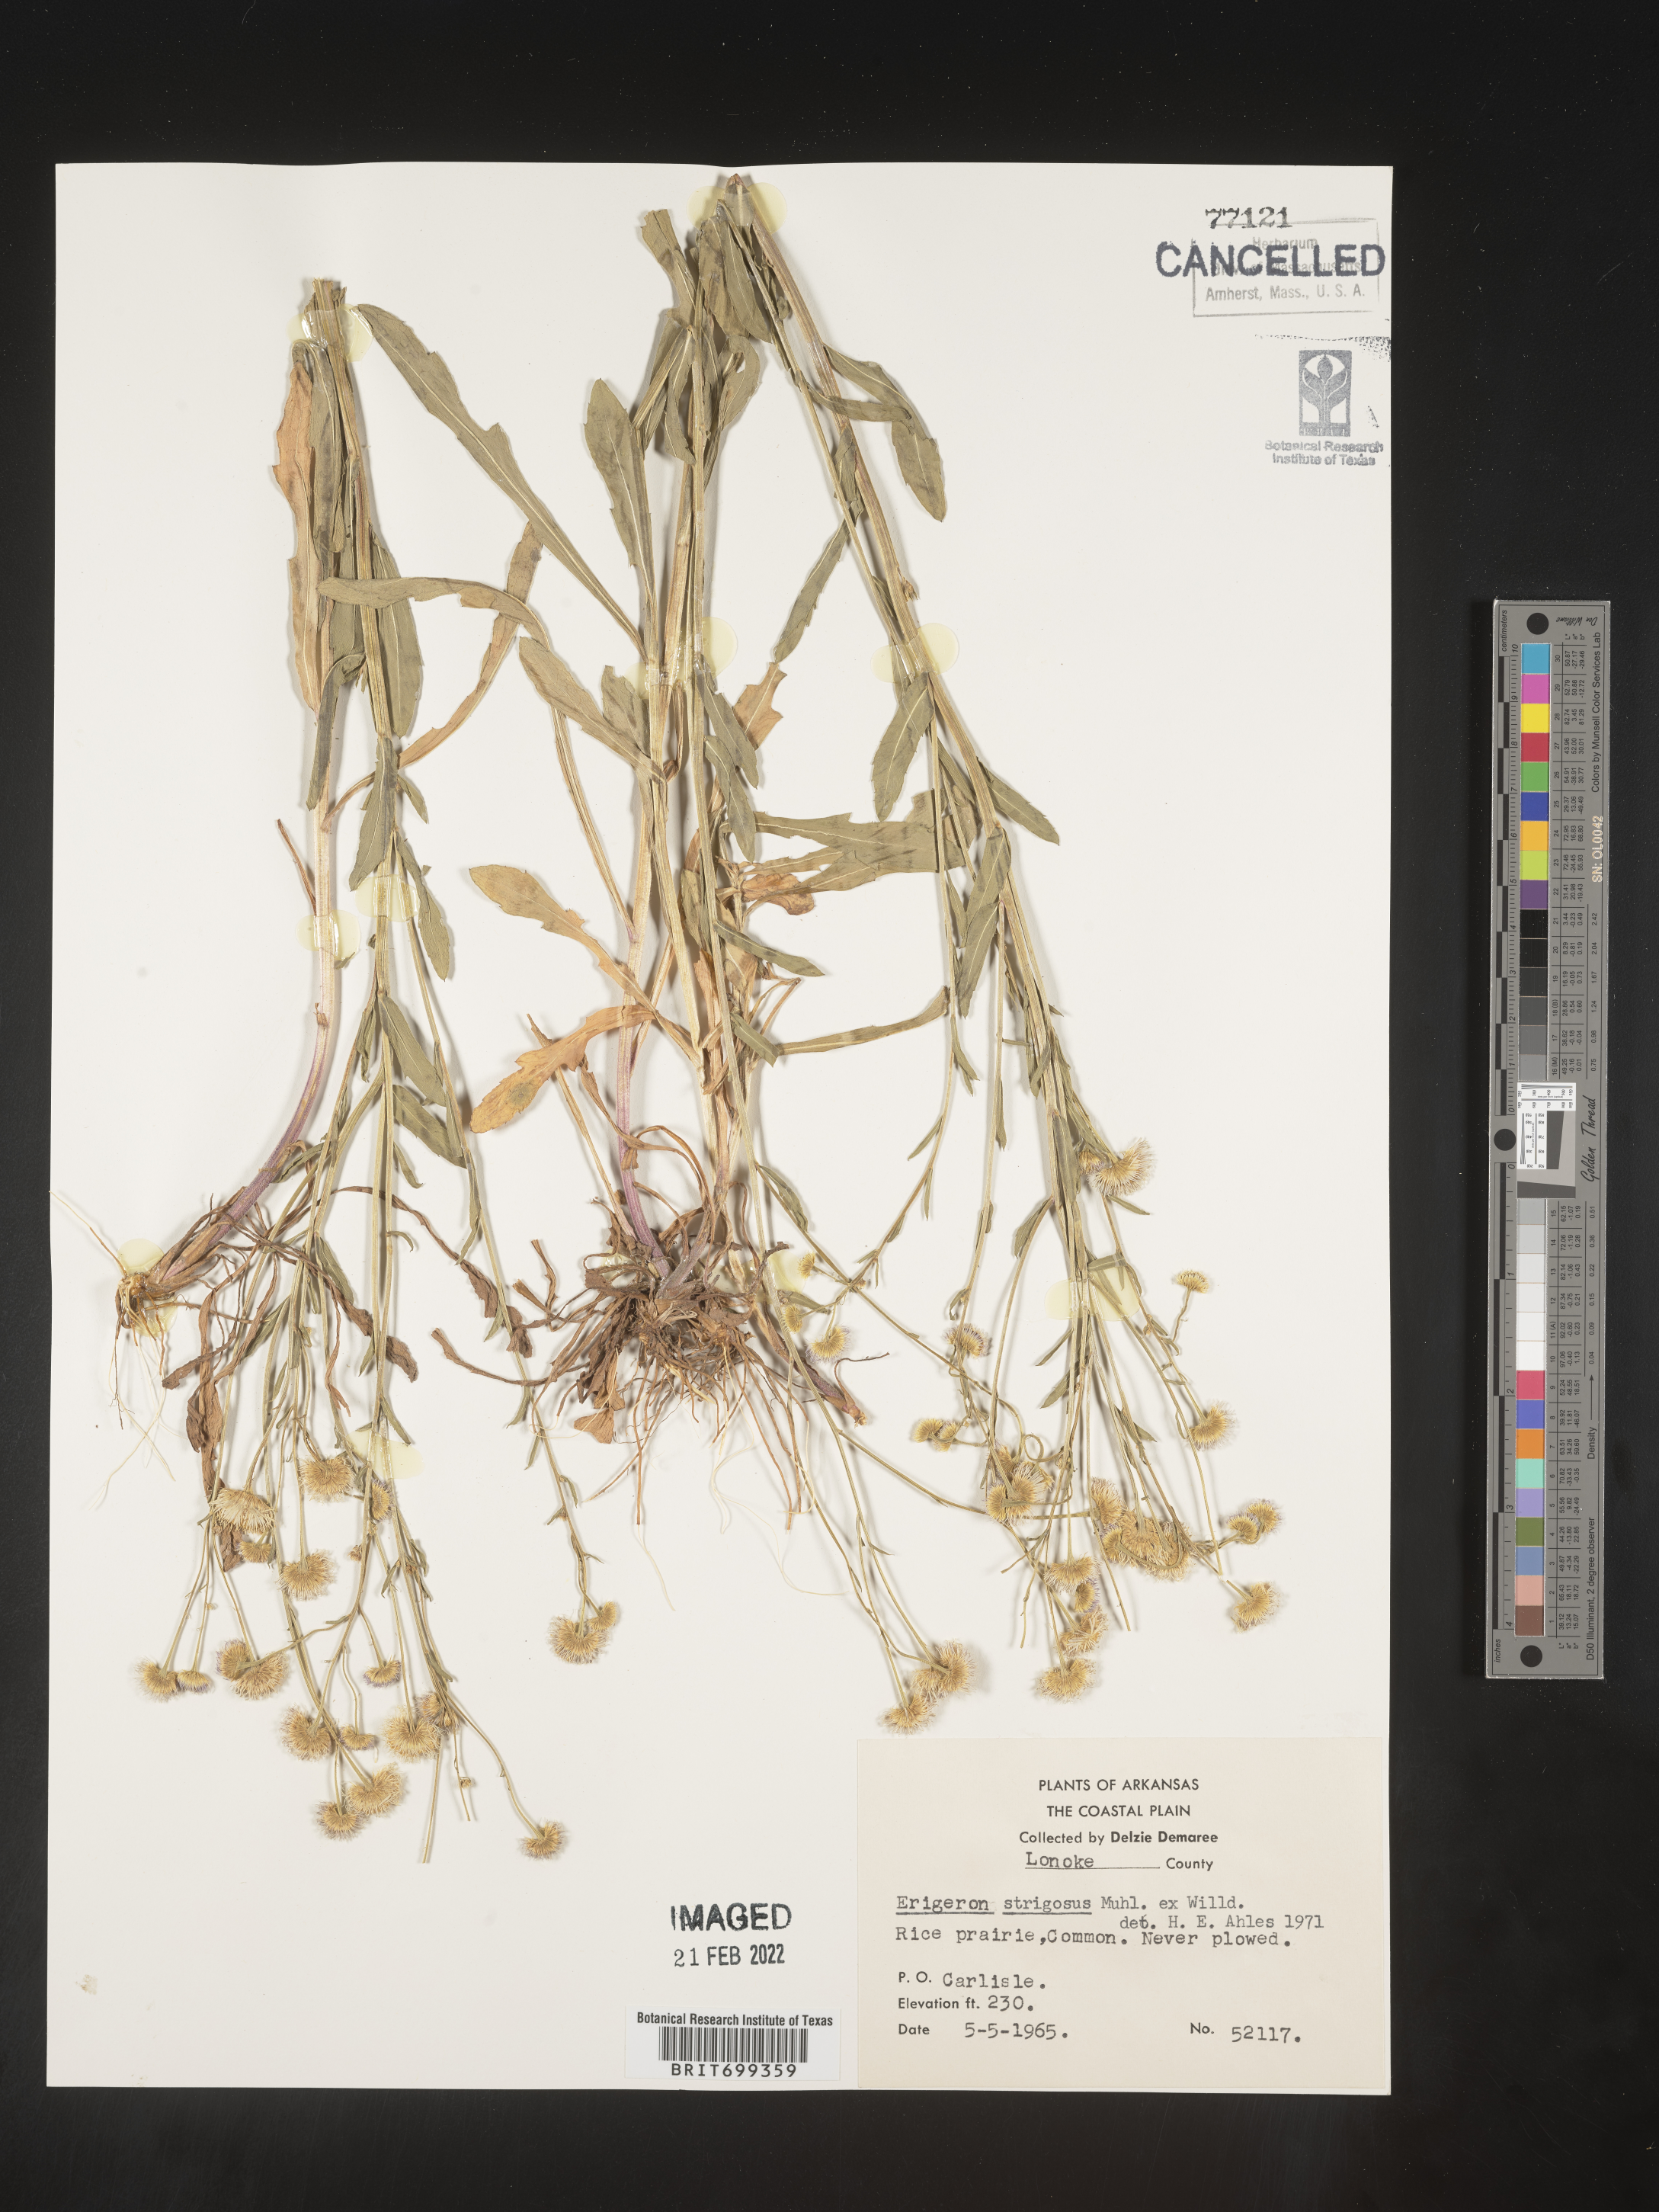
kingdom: Plantae
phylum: Tracheophyta
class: Magnoliopsida
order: Asterales
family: Asteraceae
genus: Erigeron
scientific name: Erigeron strigosus
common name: Common eastern fleabane
